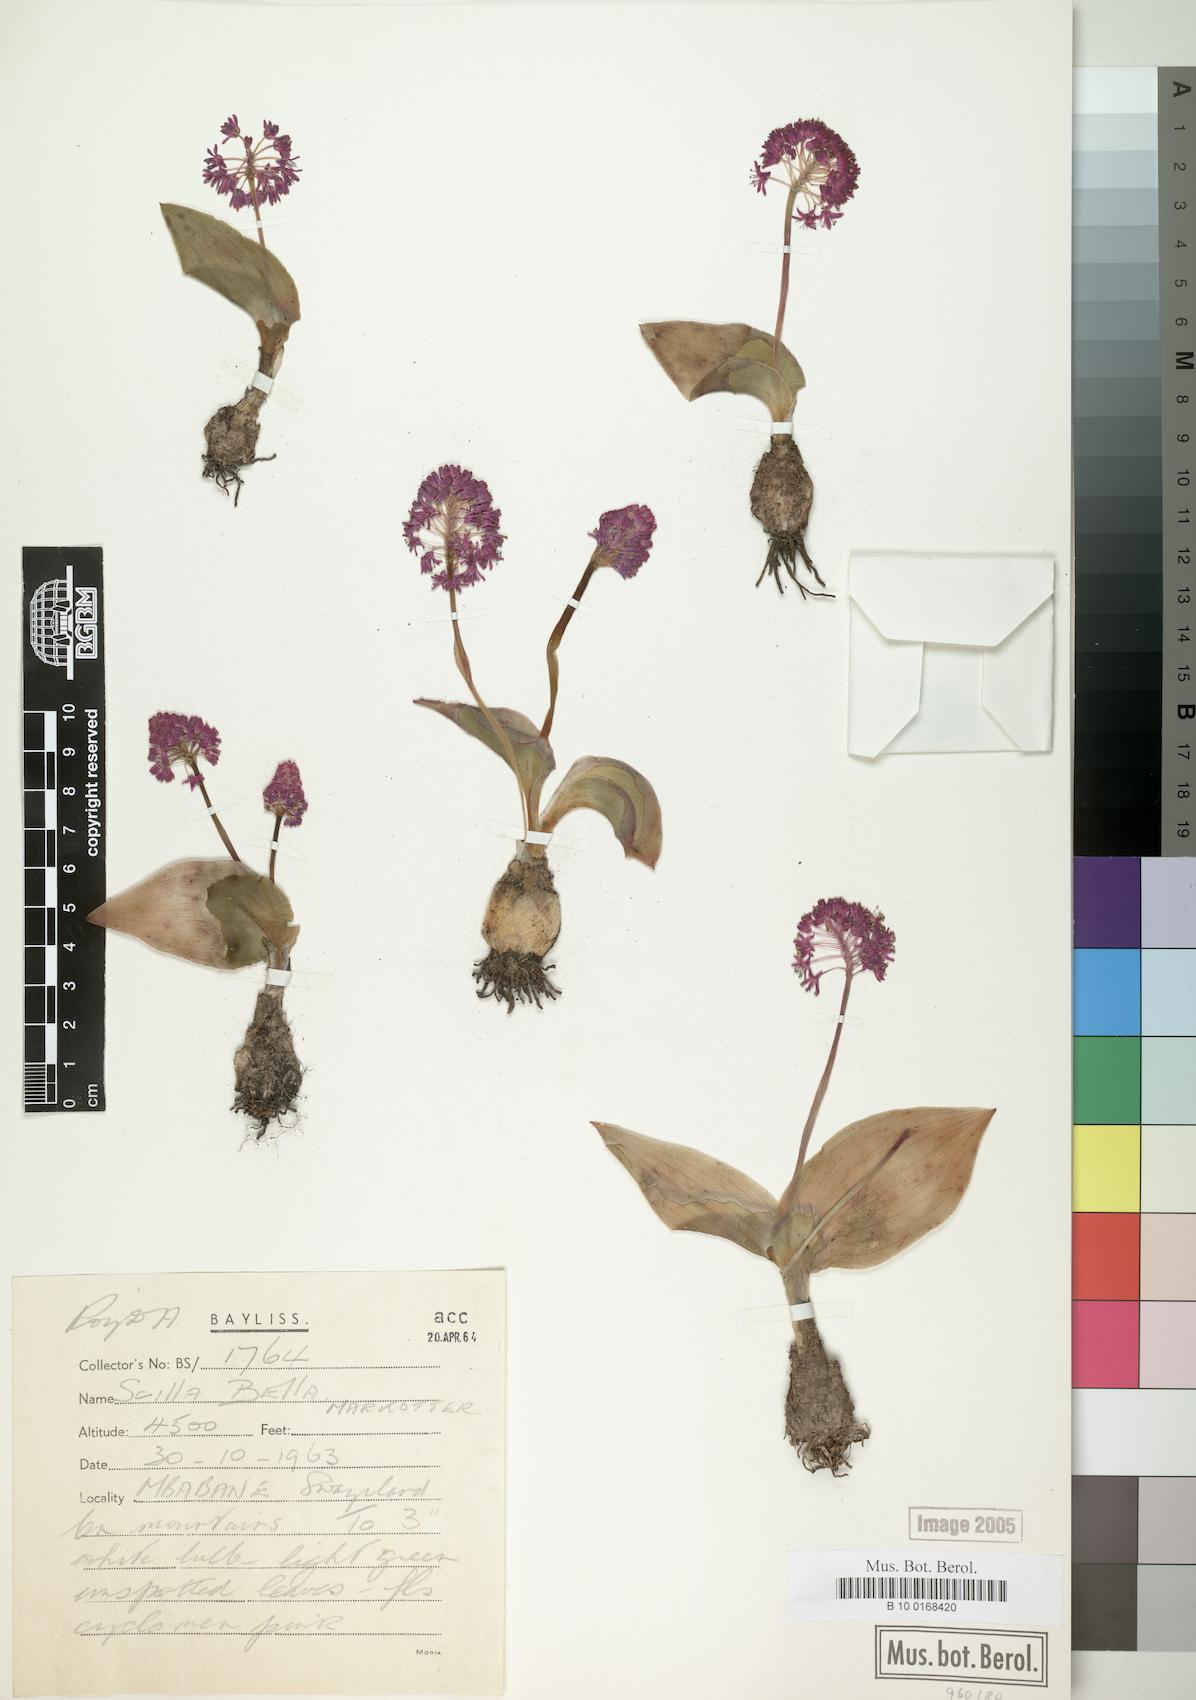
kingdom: Plantae
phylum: Tracheophyta
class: Liliopsida
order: Asparagales
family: Asparagaceae
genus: Ledebouria
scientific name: Ledebouria sandersonii
